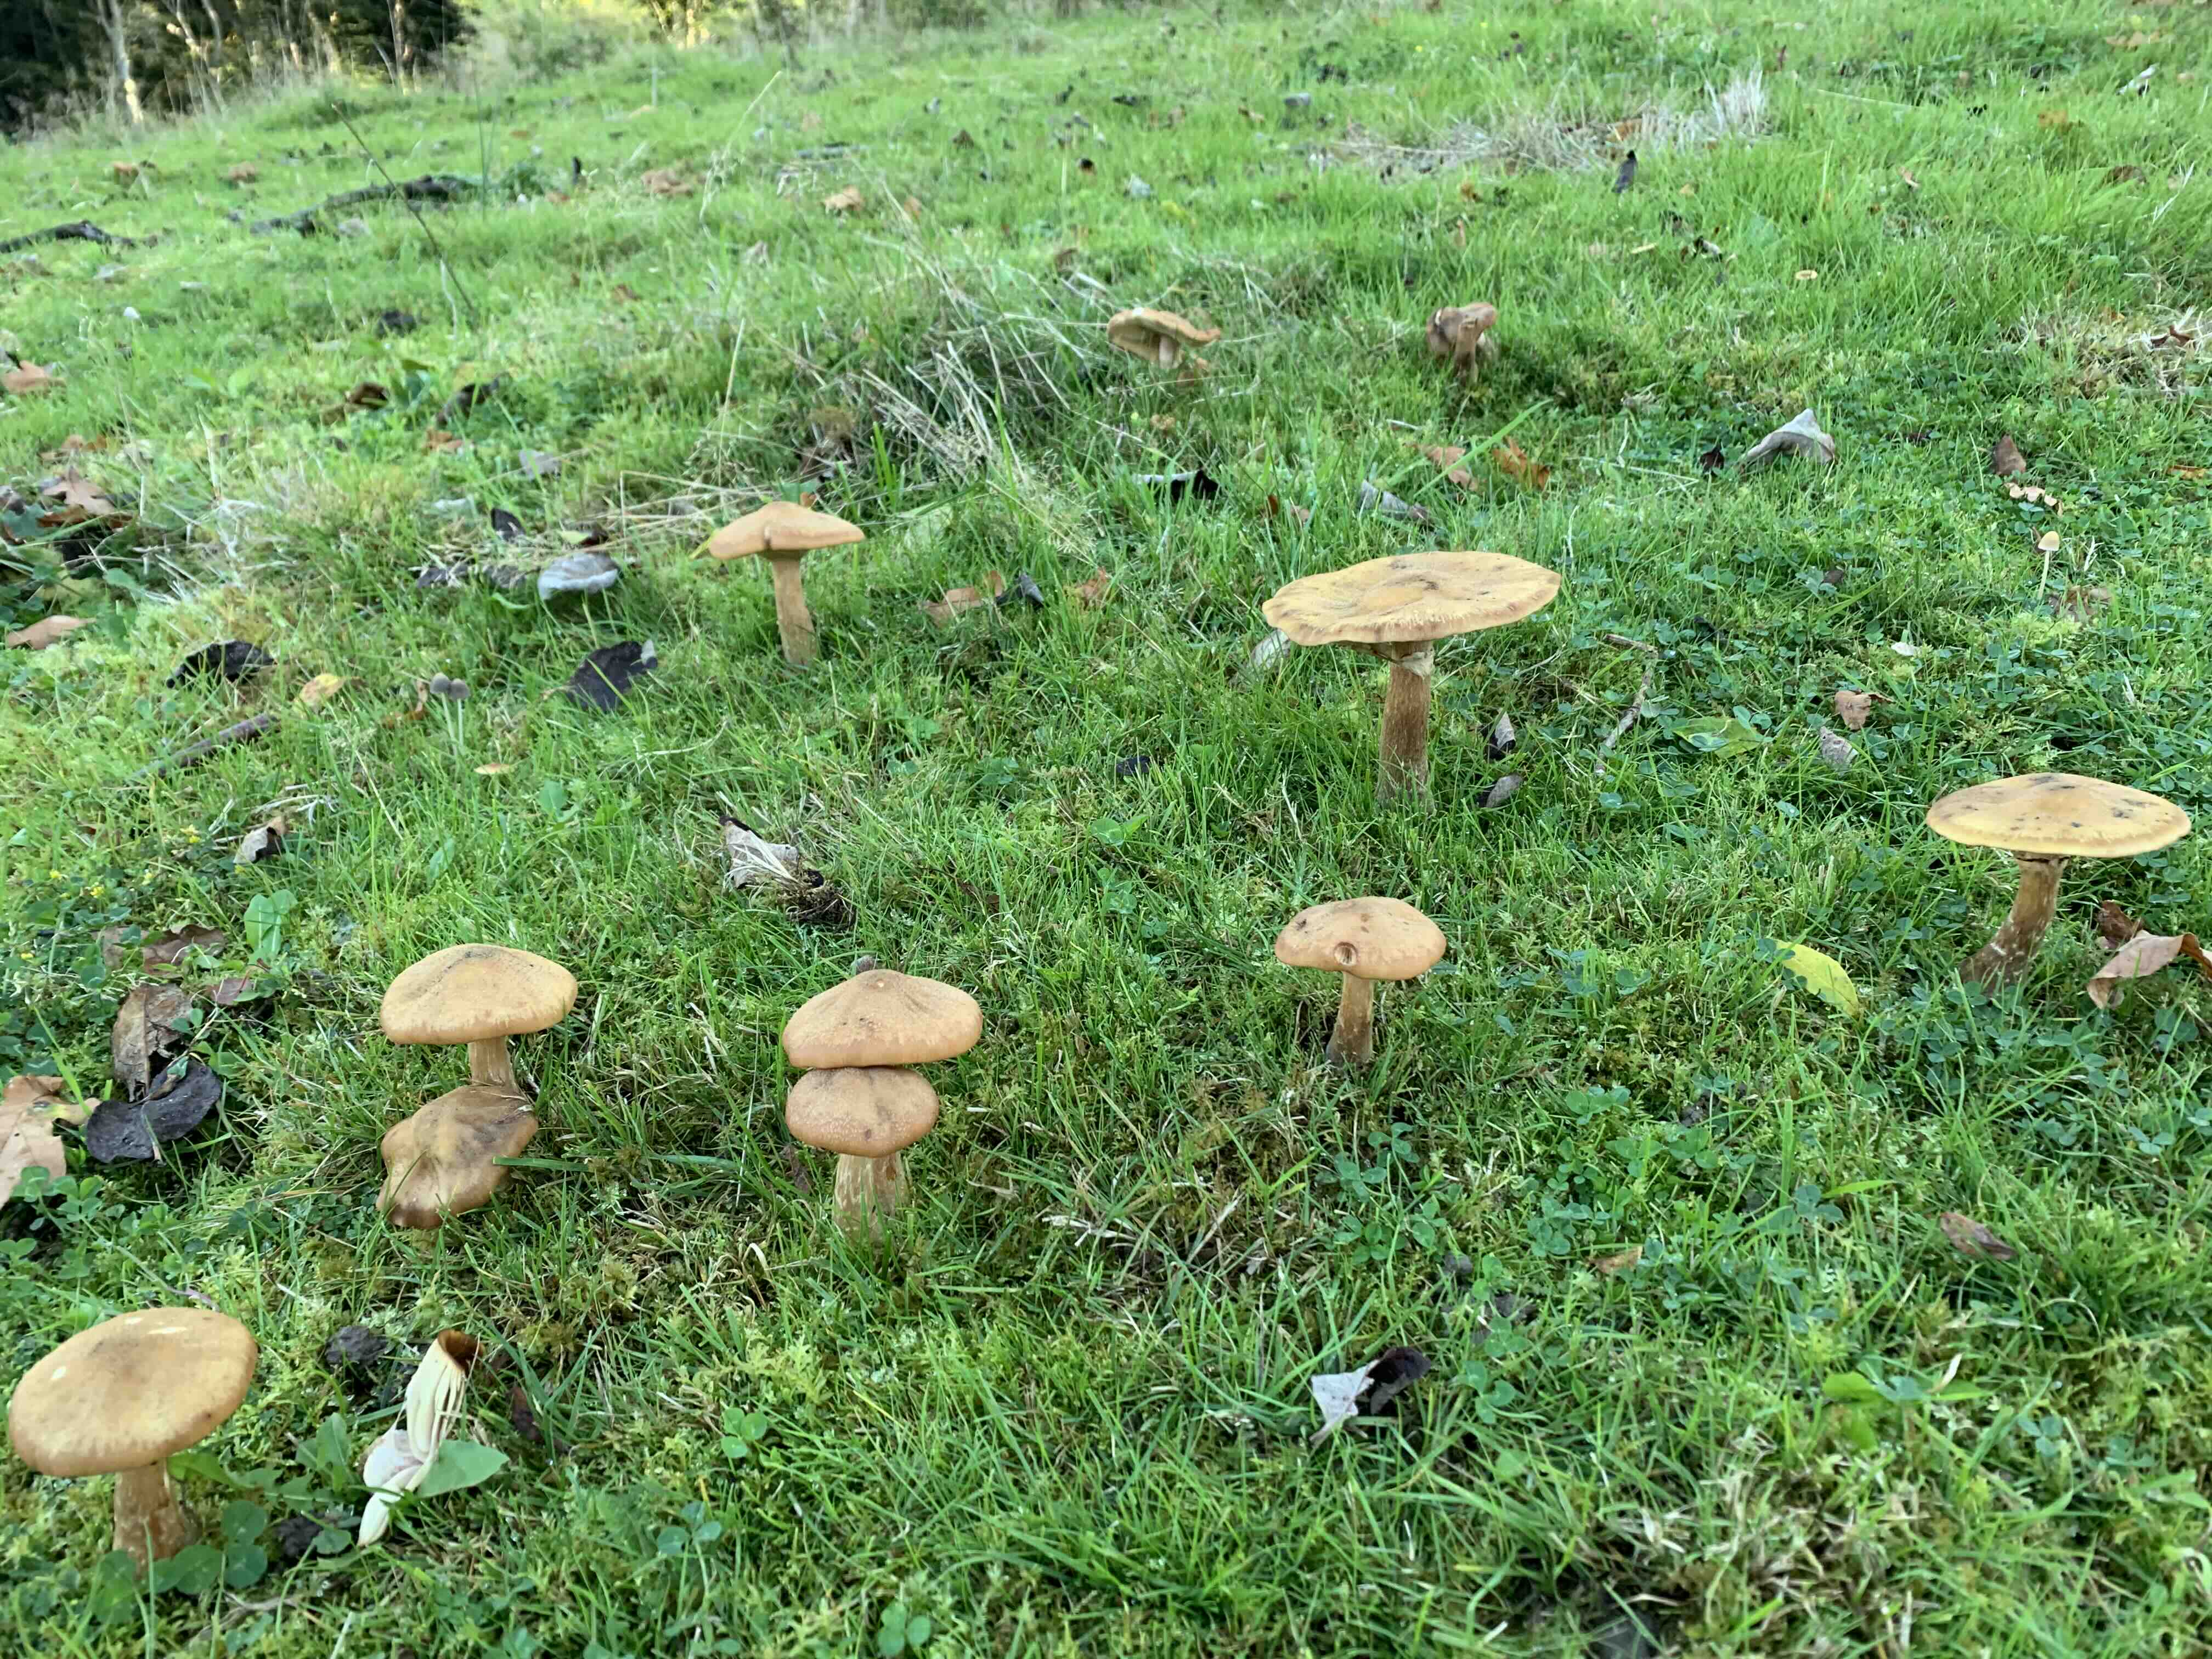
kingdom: Fungi
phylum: Basidiomycota
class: Agaricomycetes
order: Agaricales
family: Physalacriaceae
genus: Armillaria
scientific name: Armillaria lutea
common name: køllestokket honningsvamp
